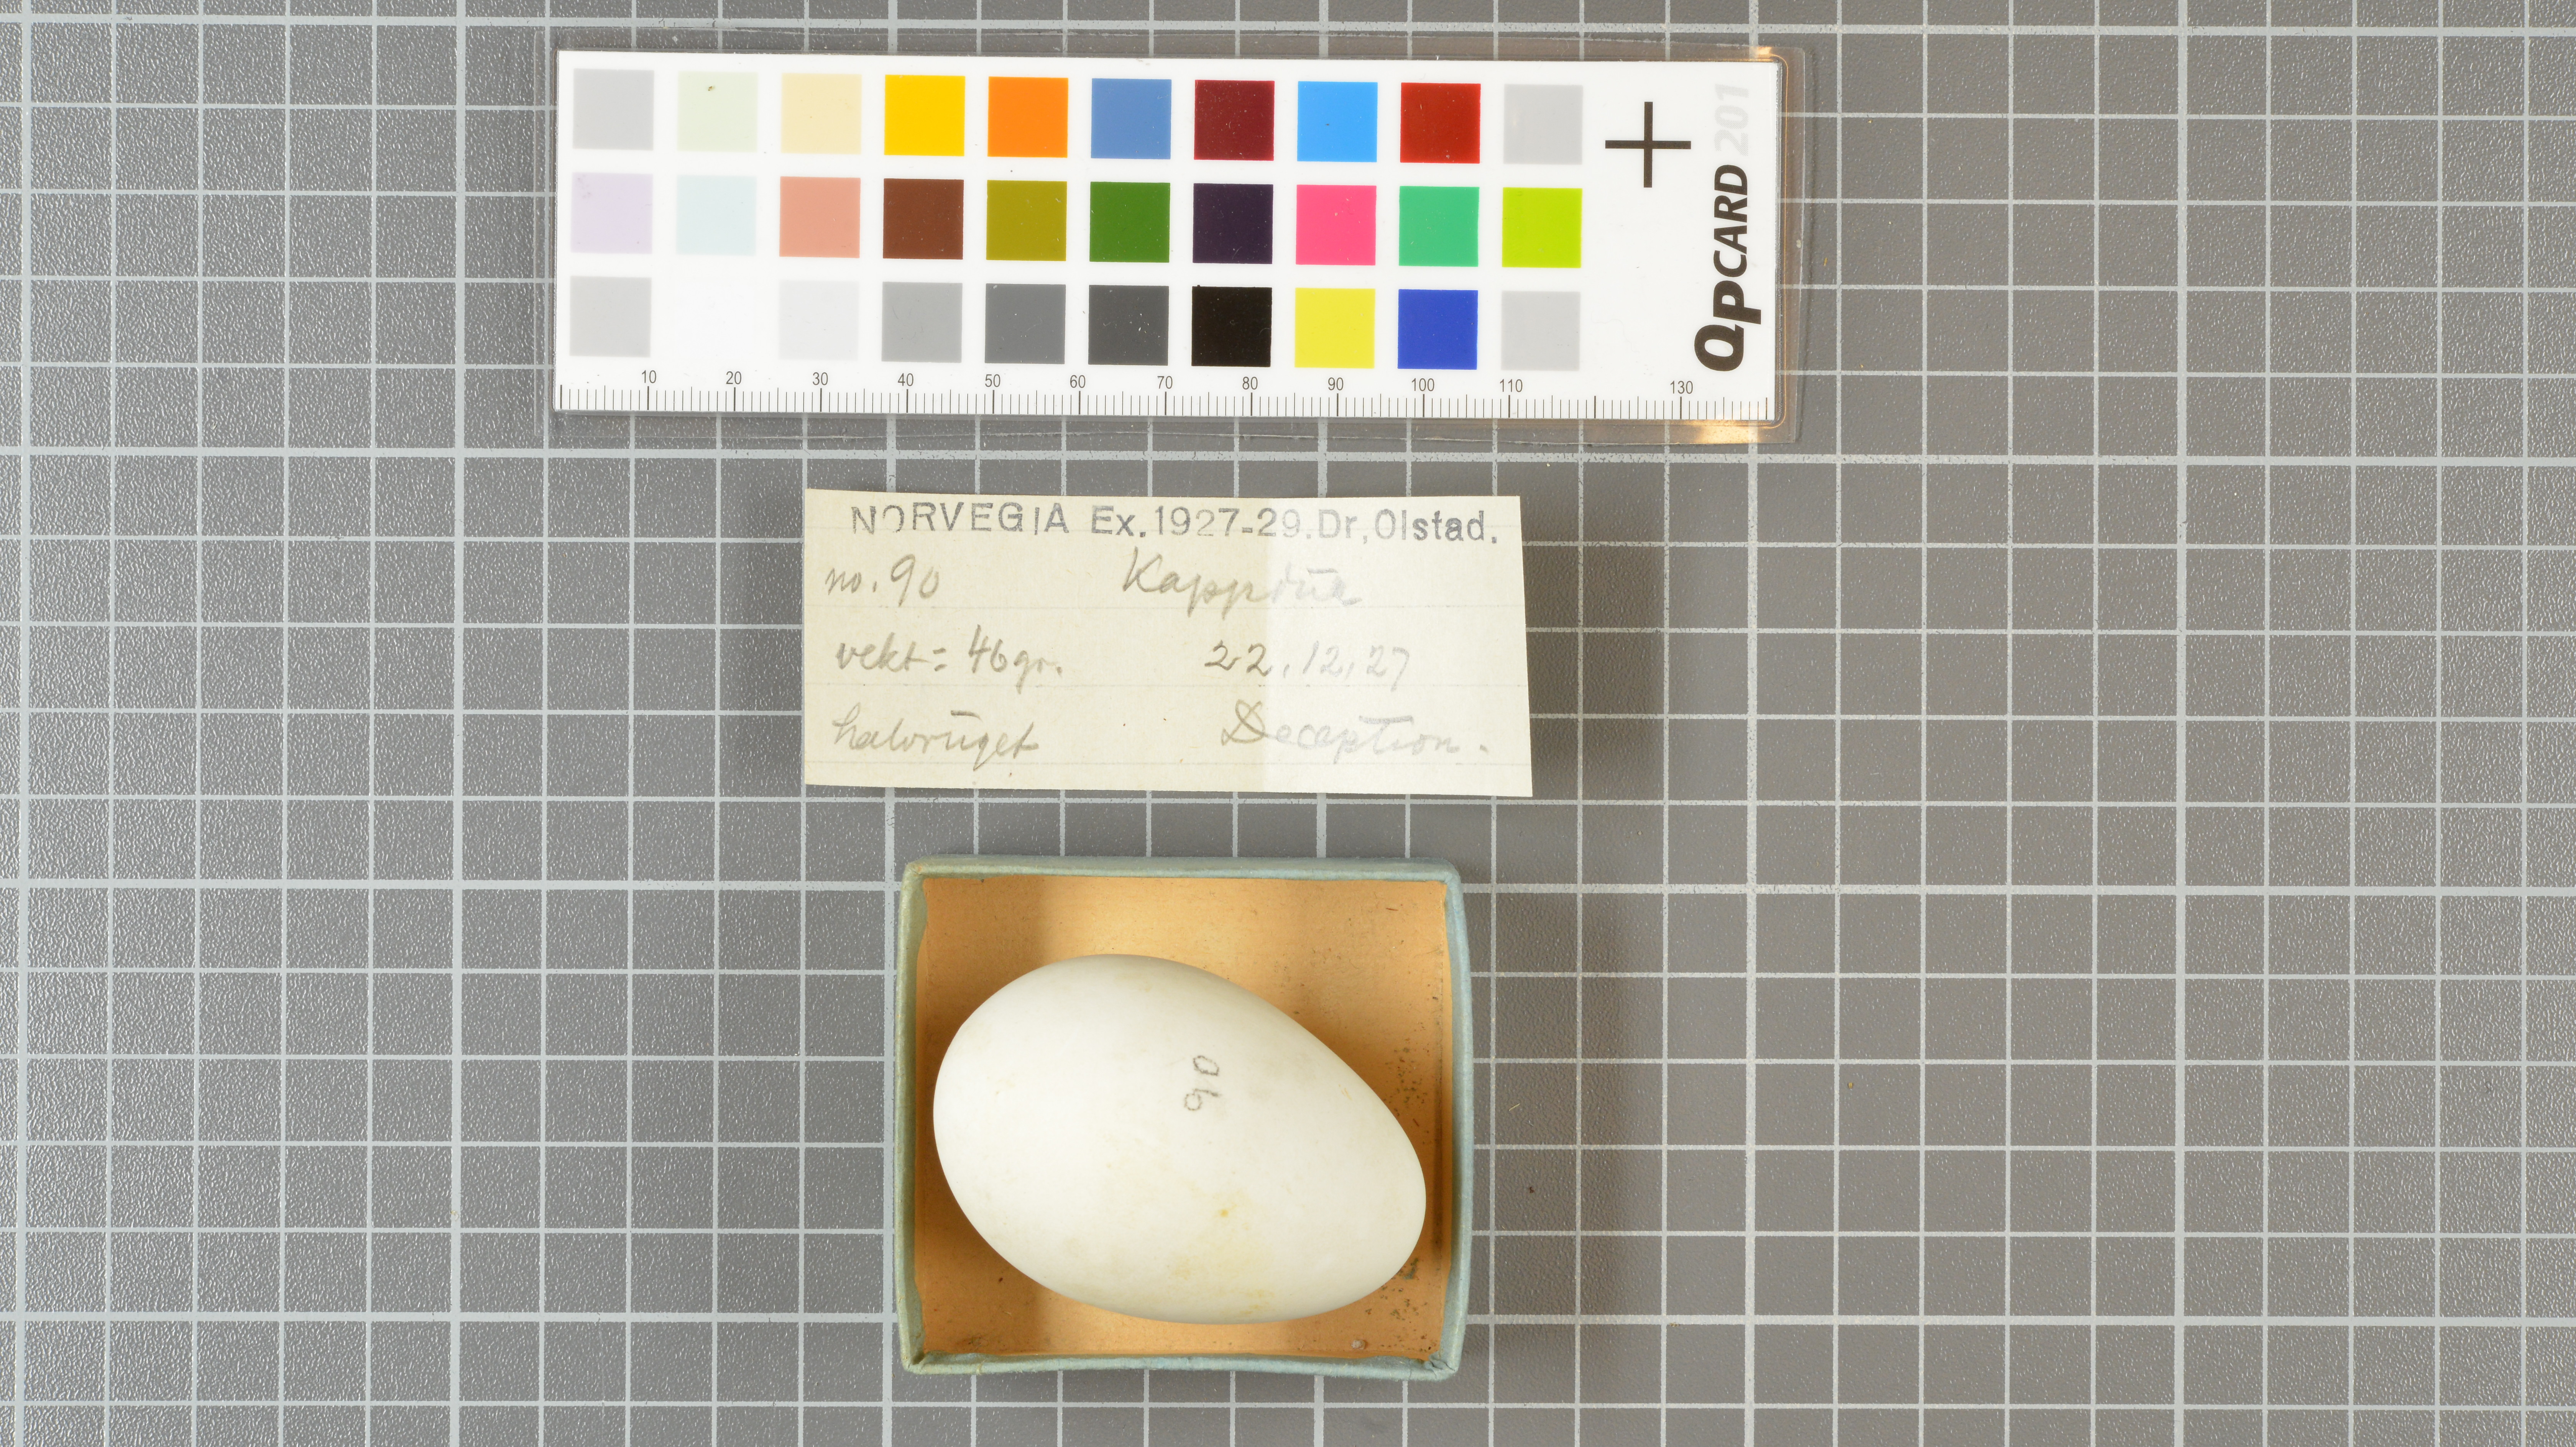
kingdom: Animalia
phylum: Chordata
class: Aves
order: Procellariiformes
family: Procellariidae
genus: Daption
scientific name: Daption capense
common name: Cape petrel
